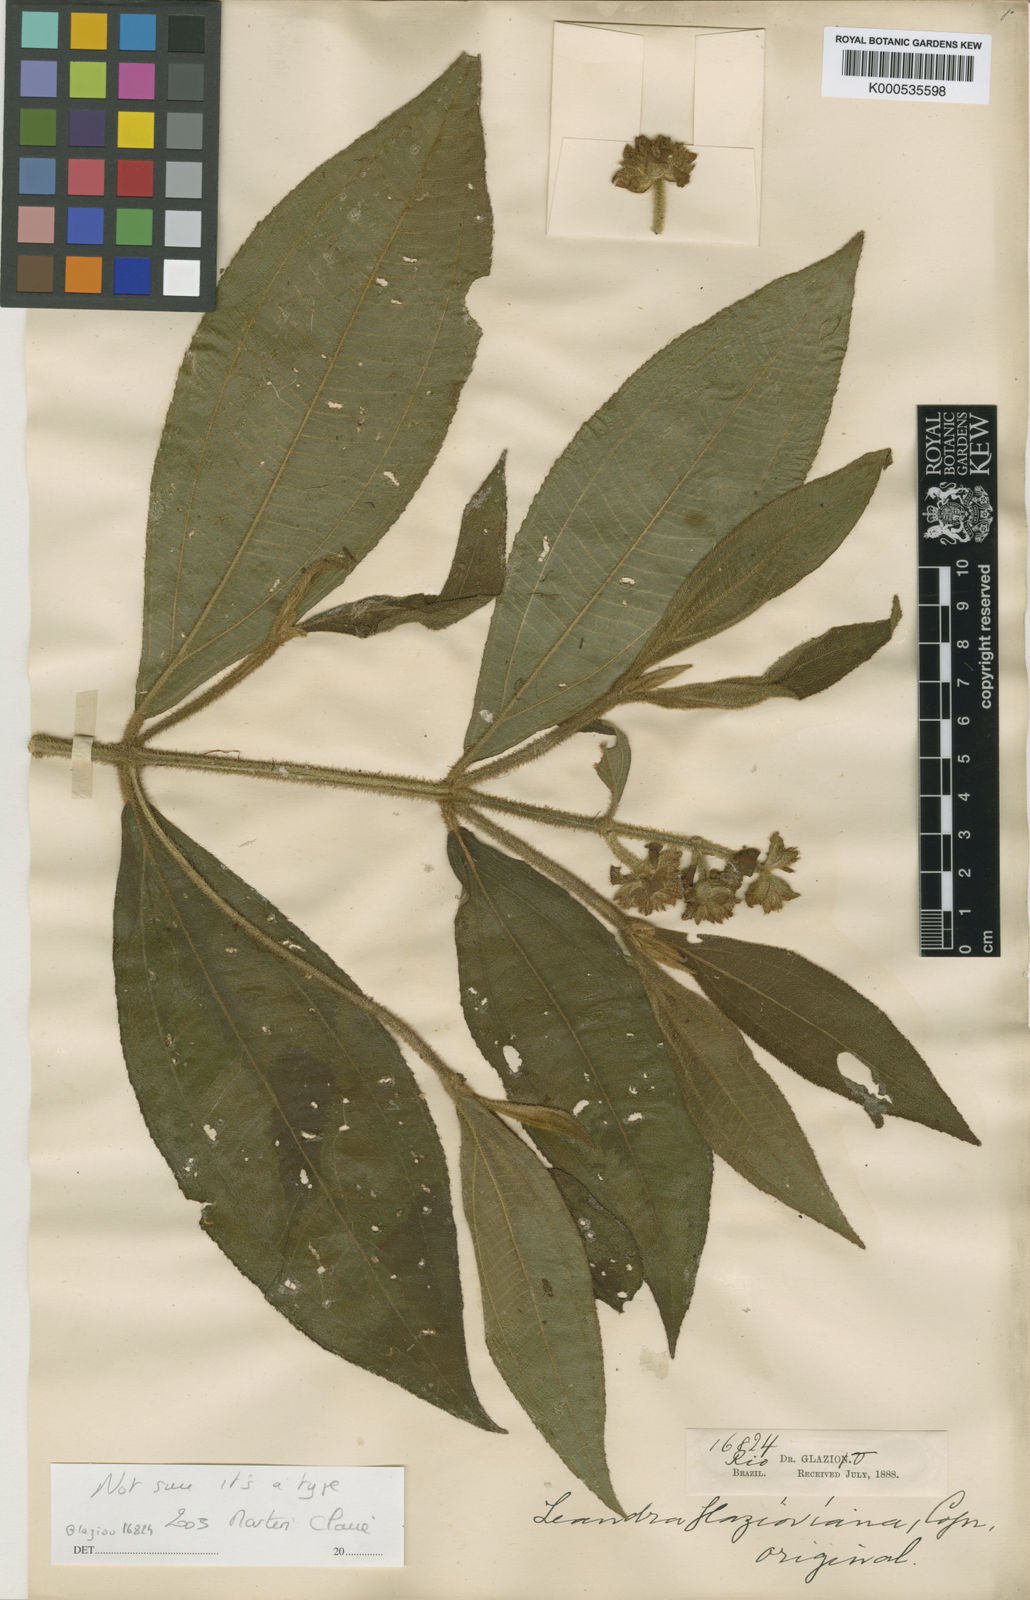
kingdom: Plantae
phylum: Tracheophyta
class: Magnoliopsida
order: Myrtales
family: Melastomataceae
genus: Miconia
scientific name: Miconia pubistyla
